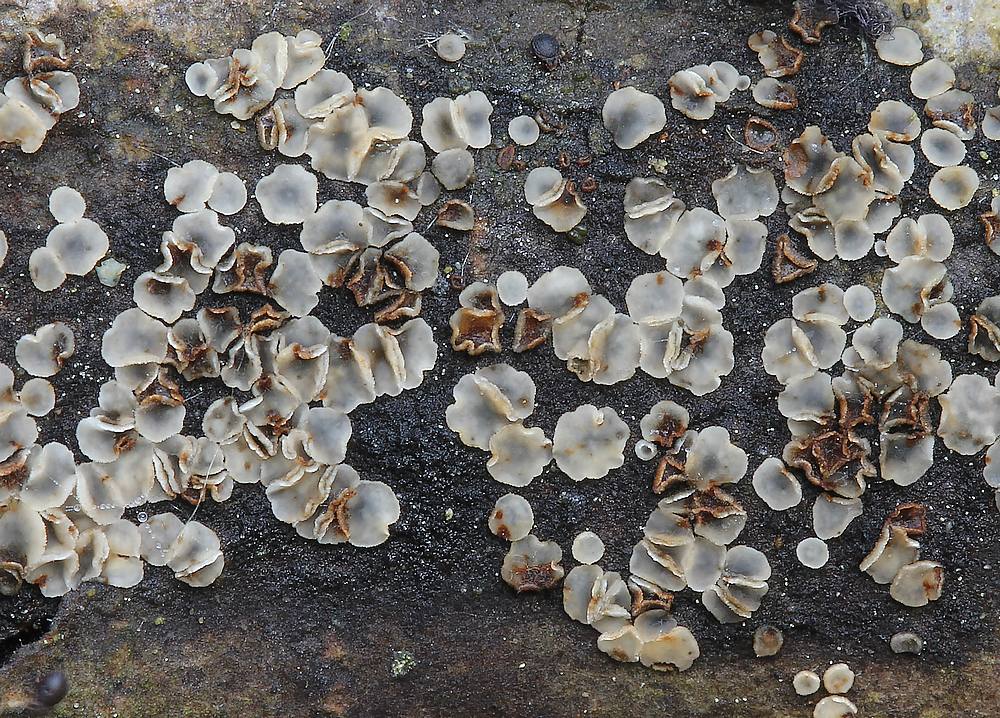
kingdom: Fungi
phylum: Ascomycota
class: Leotiomycetes
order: Helotiales
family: Mollisiaceae
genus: Tapesia
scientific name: Tapesia undulata
